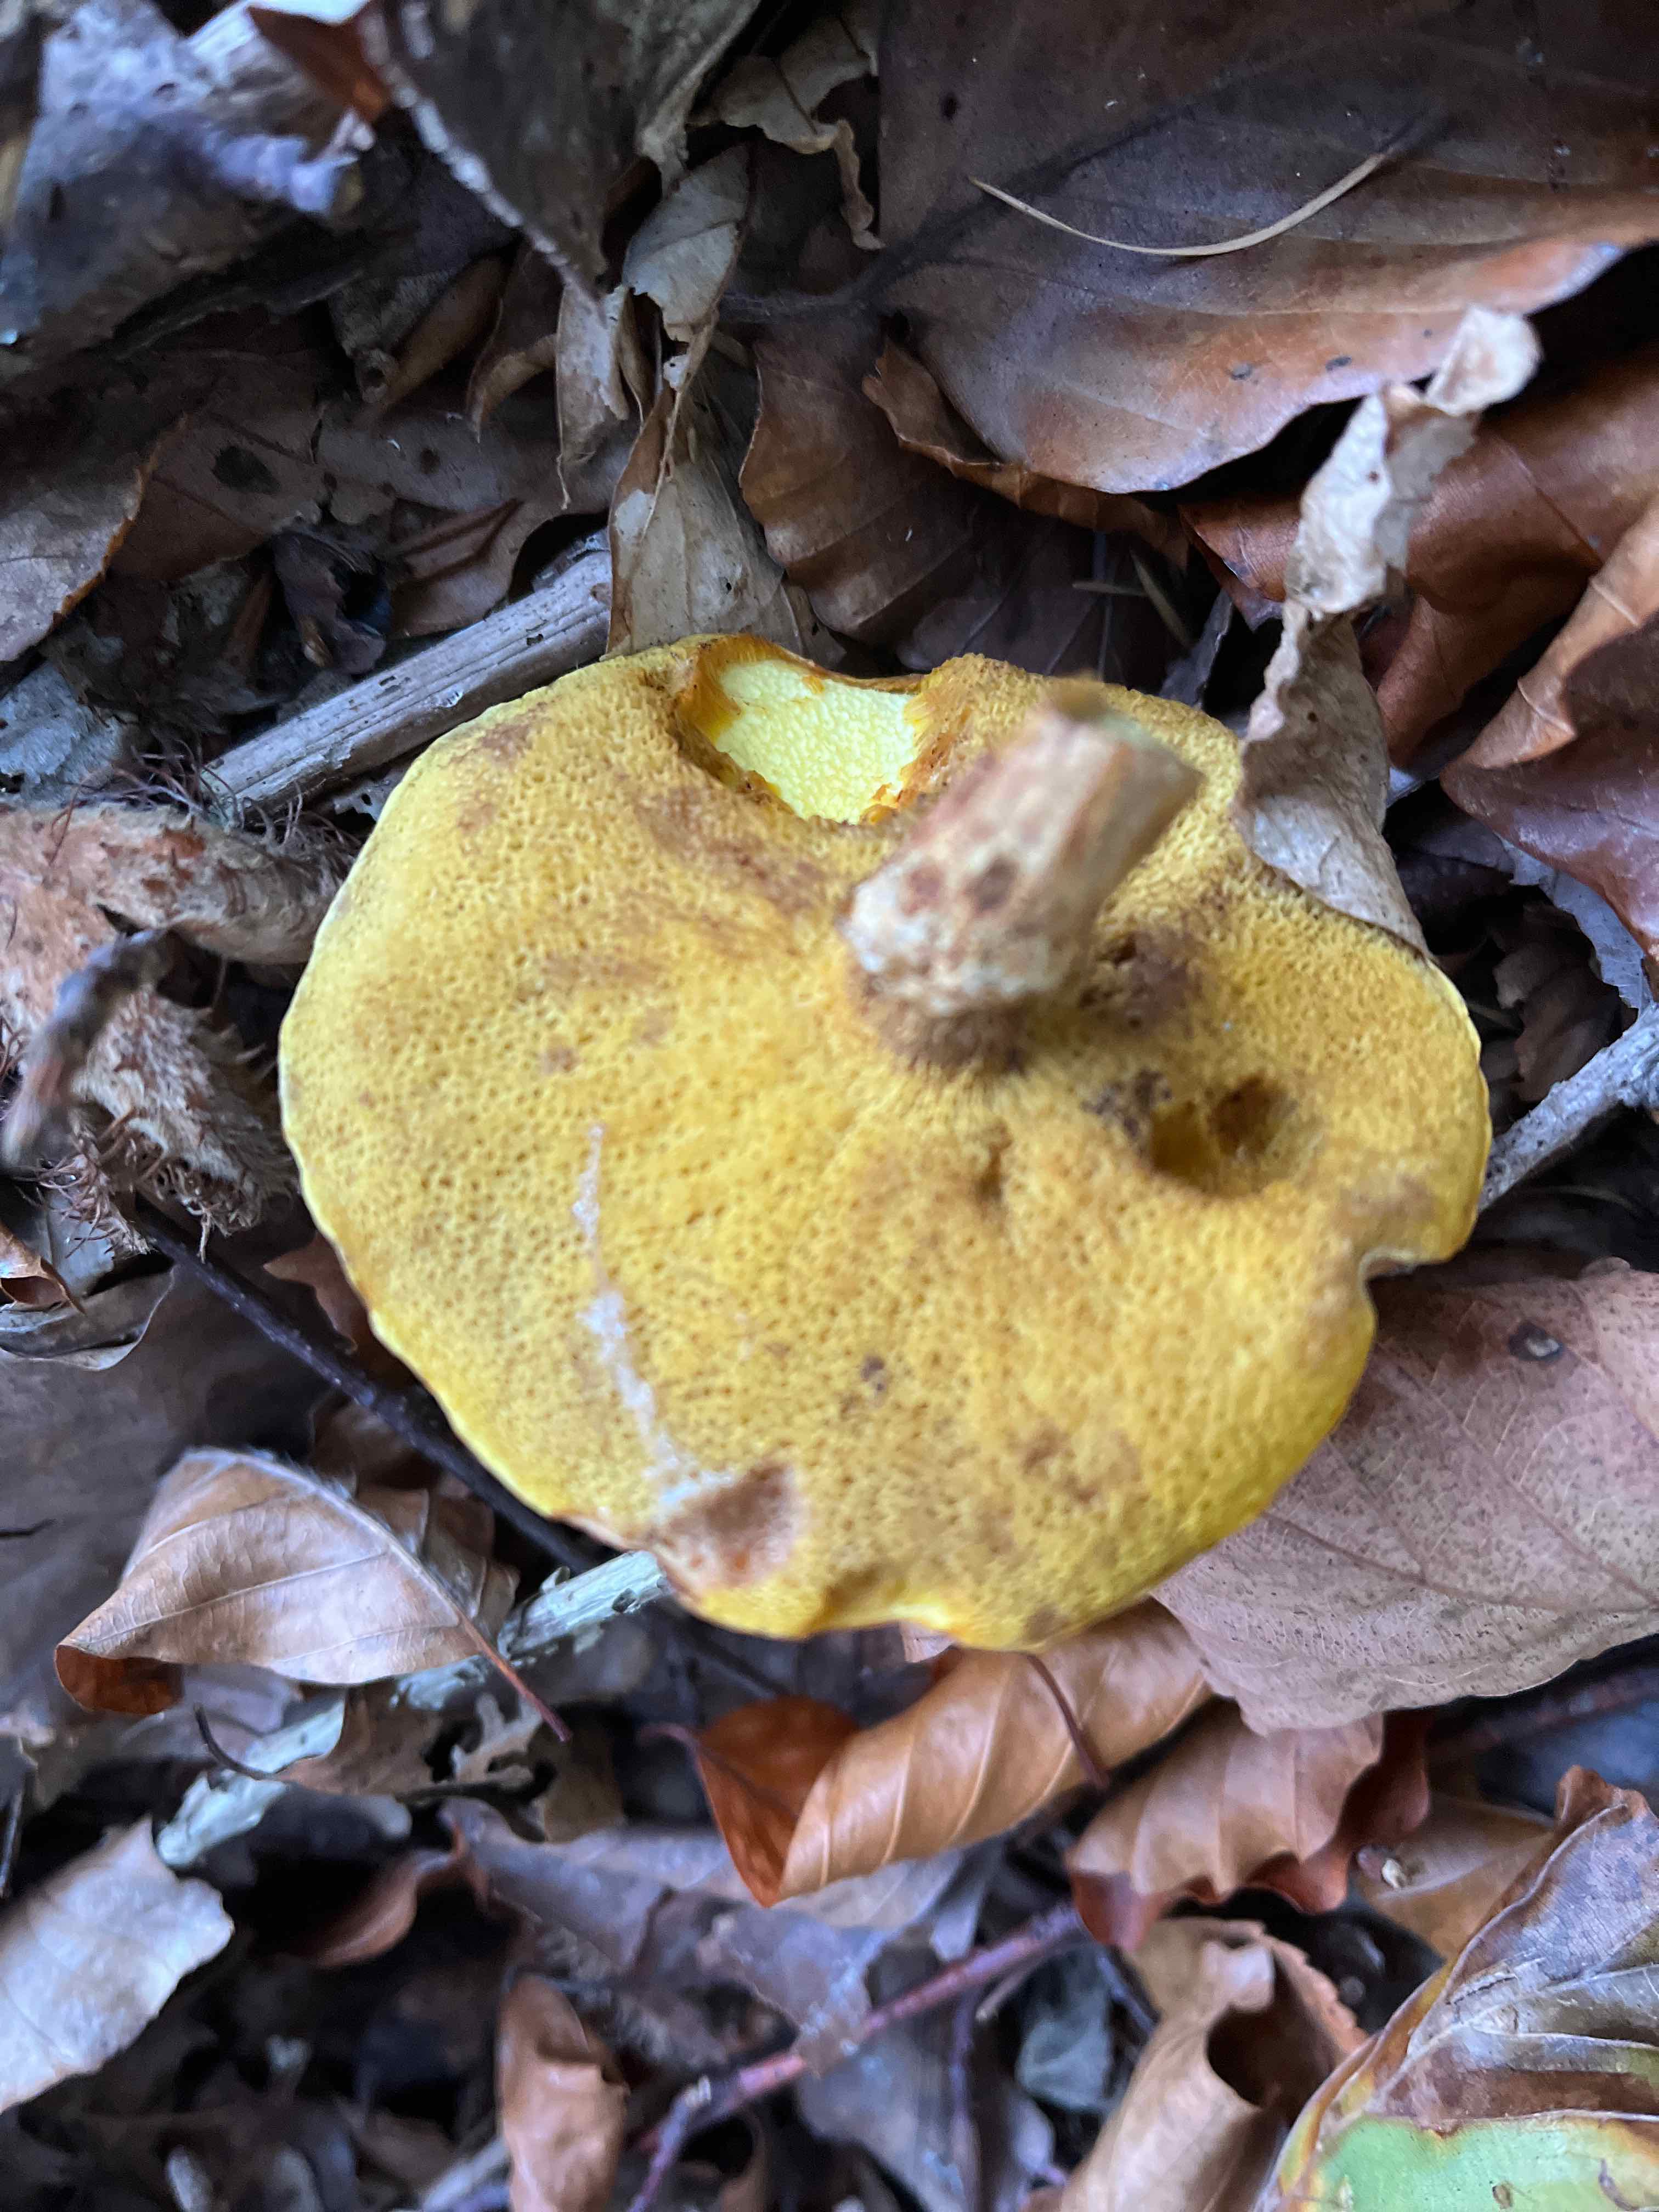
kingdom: Fungi
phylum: Basidiomycota
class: Agaricomycetes
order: Boletales
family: Suillaceae
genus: Suillus
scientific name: Suillus grevillei
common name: lærke-slimrørhat
